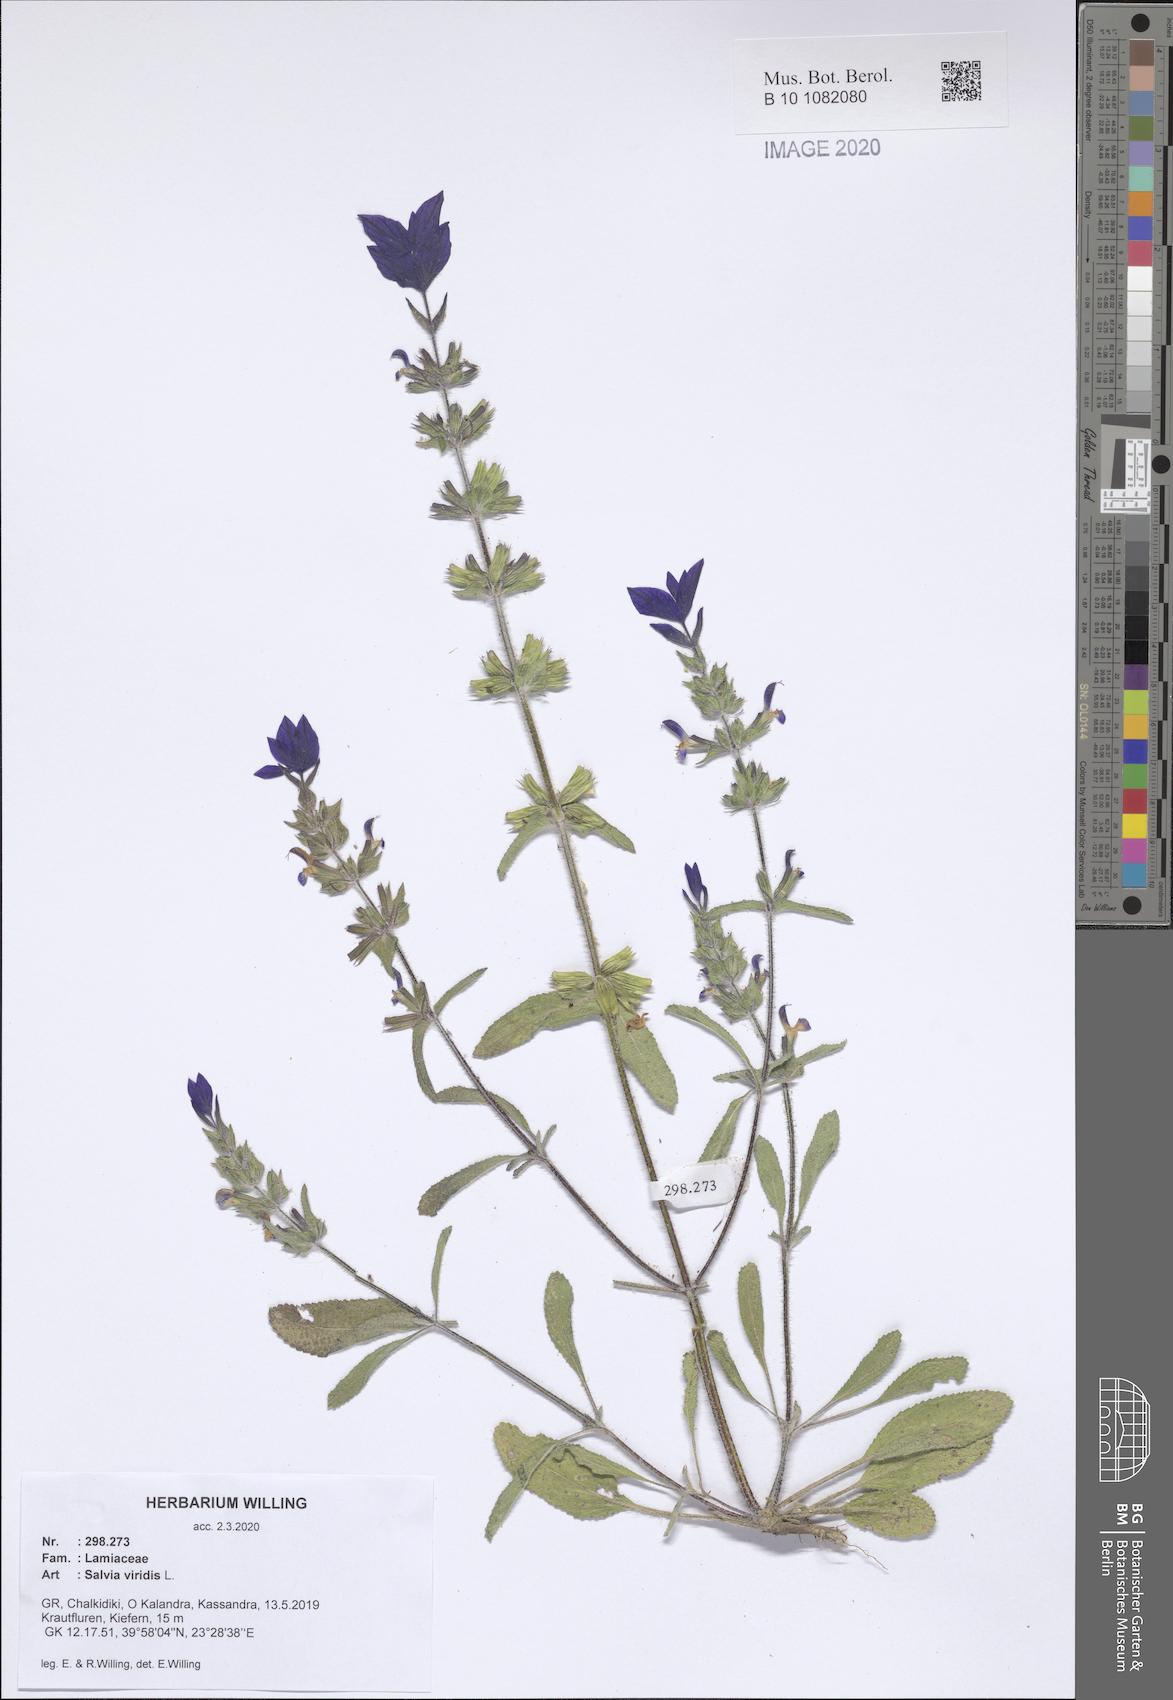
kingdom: Plantae
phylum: Tracheophyta
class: Magnoliopsida
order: Lamiales
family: Lamiaceae
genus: Salvia
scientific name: Salvia viridis
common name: Annual clary
